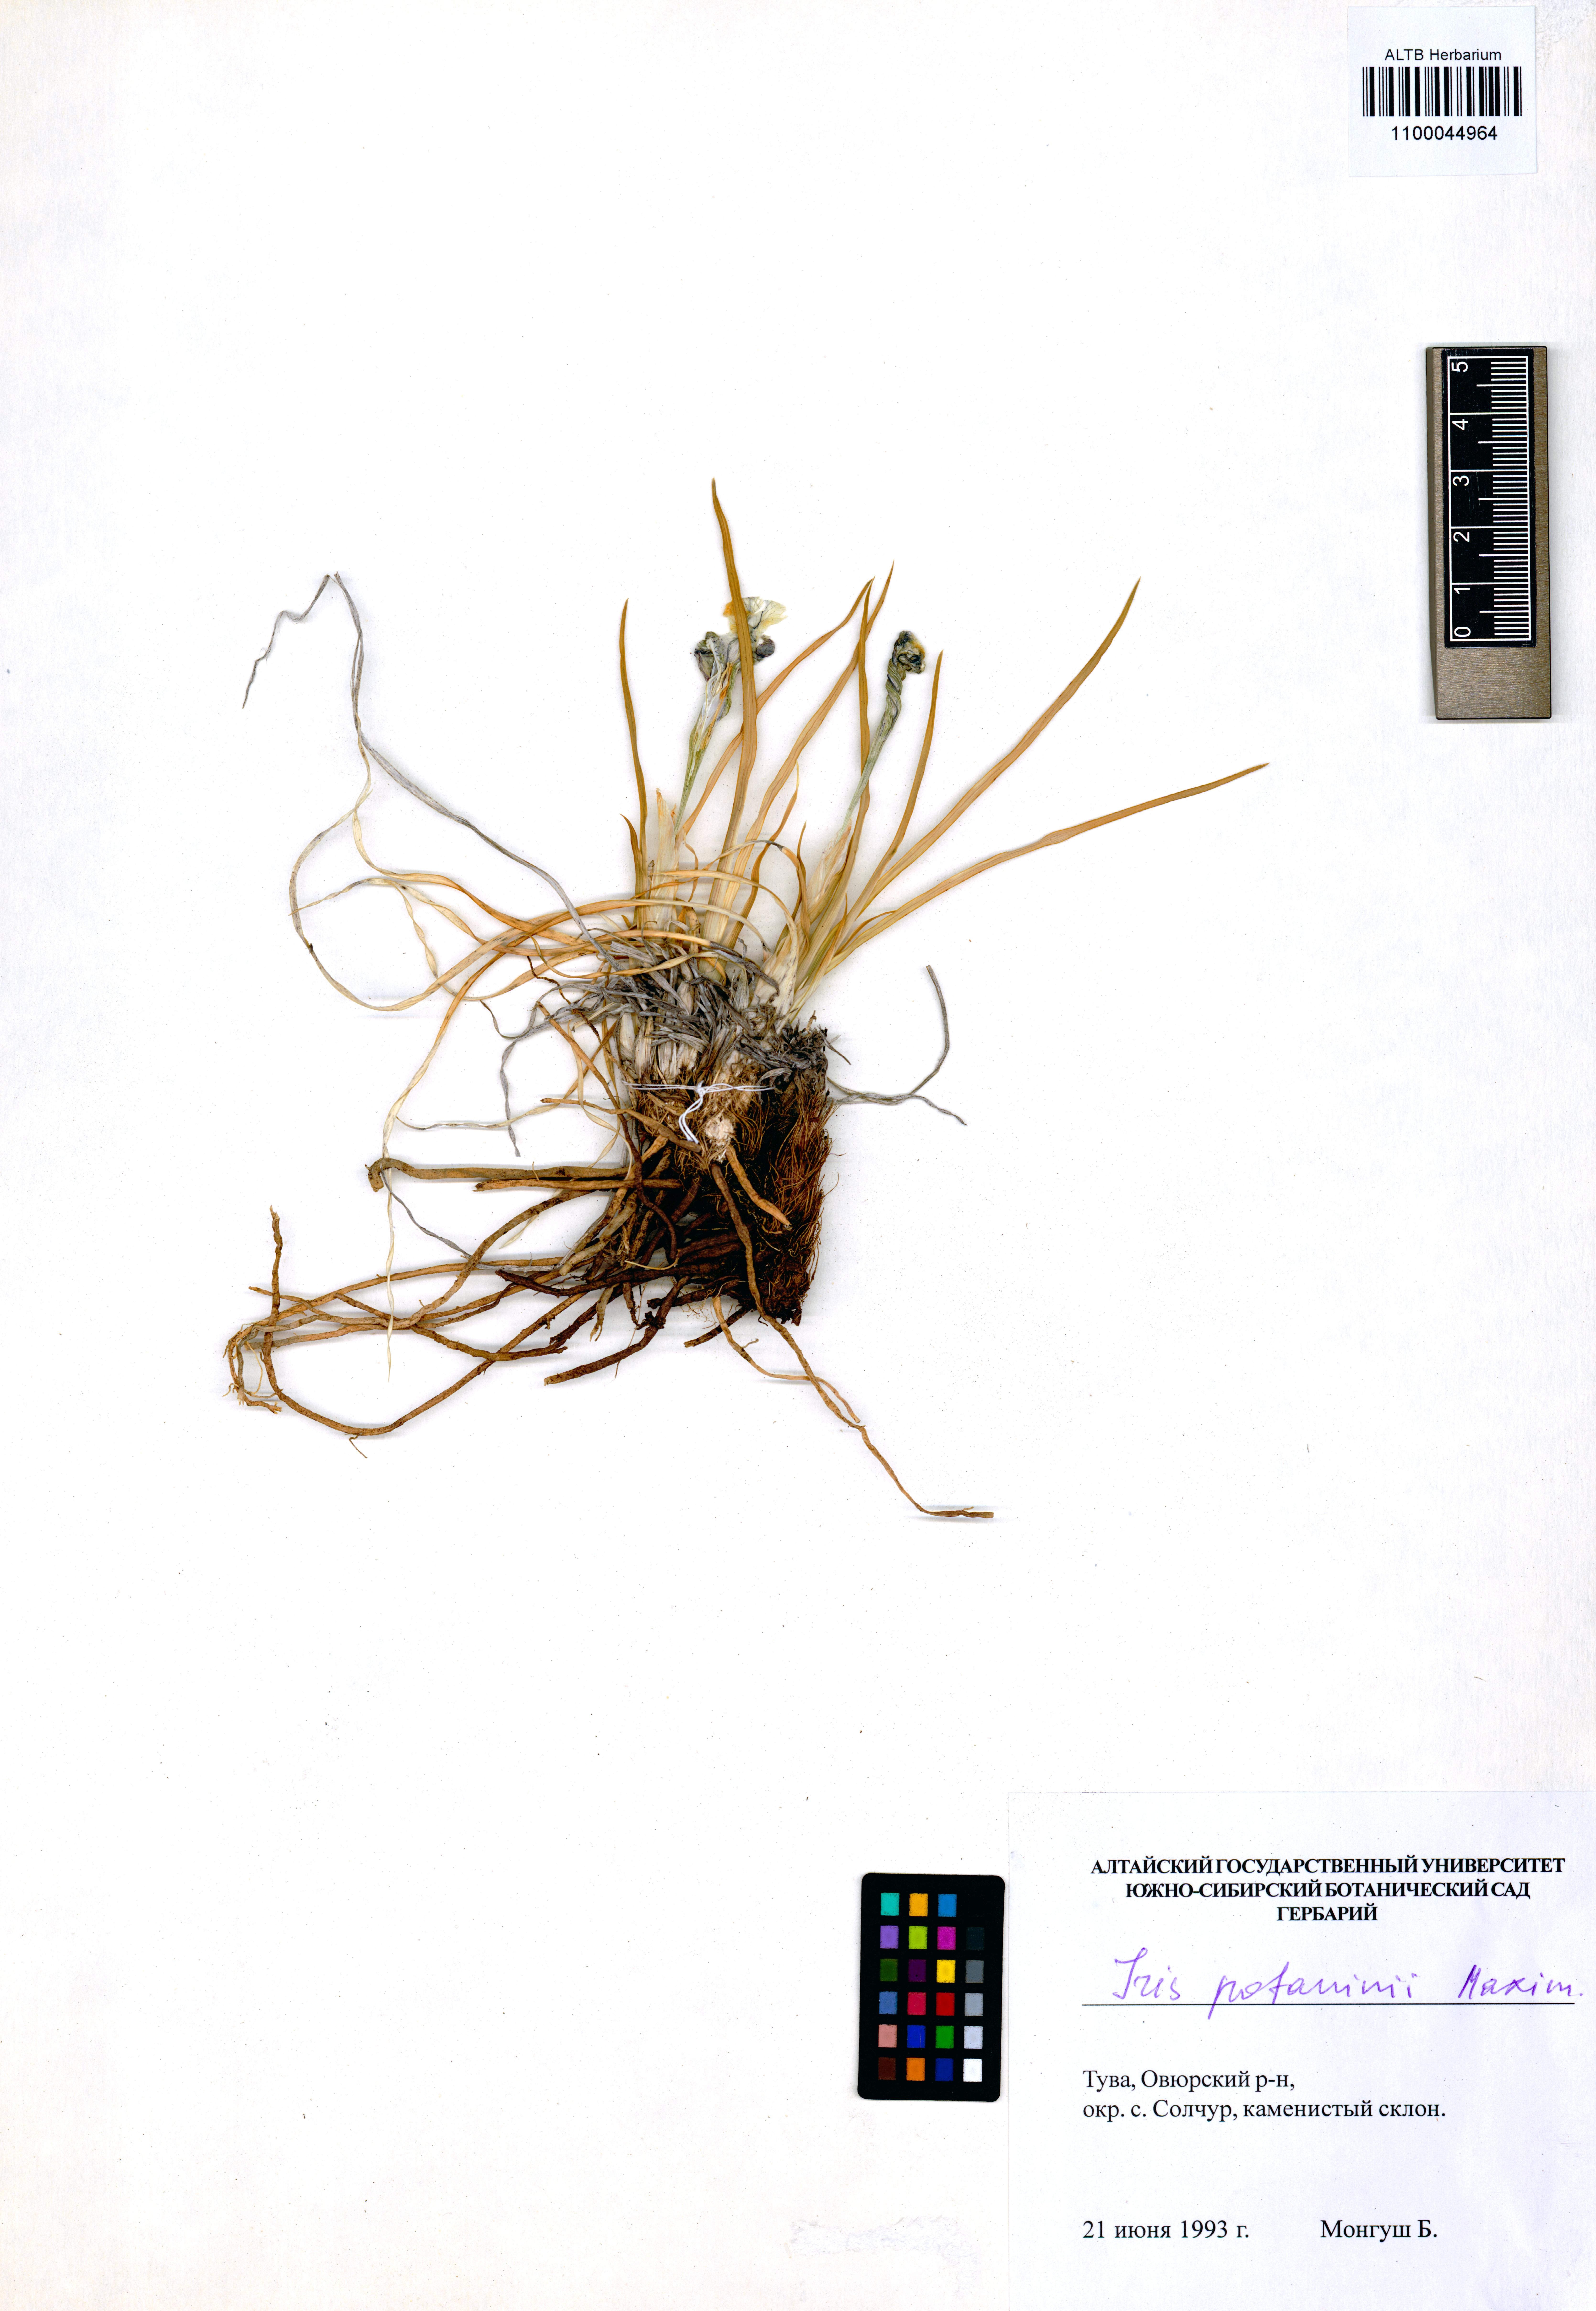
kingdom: Plantae
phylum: Tracheophyta
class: Liliopsida
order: Asparagales
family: Iridaceae
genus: Iris
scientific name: Iris potaninii
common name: Curl-sheath iris
